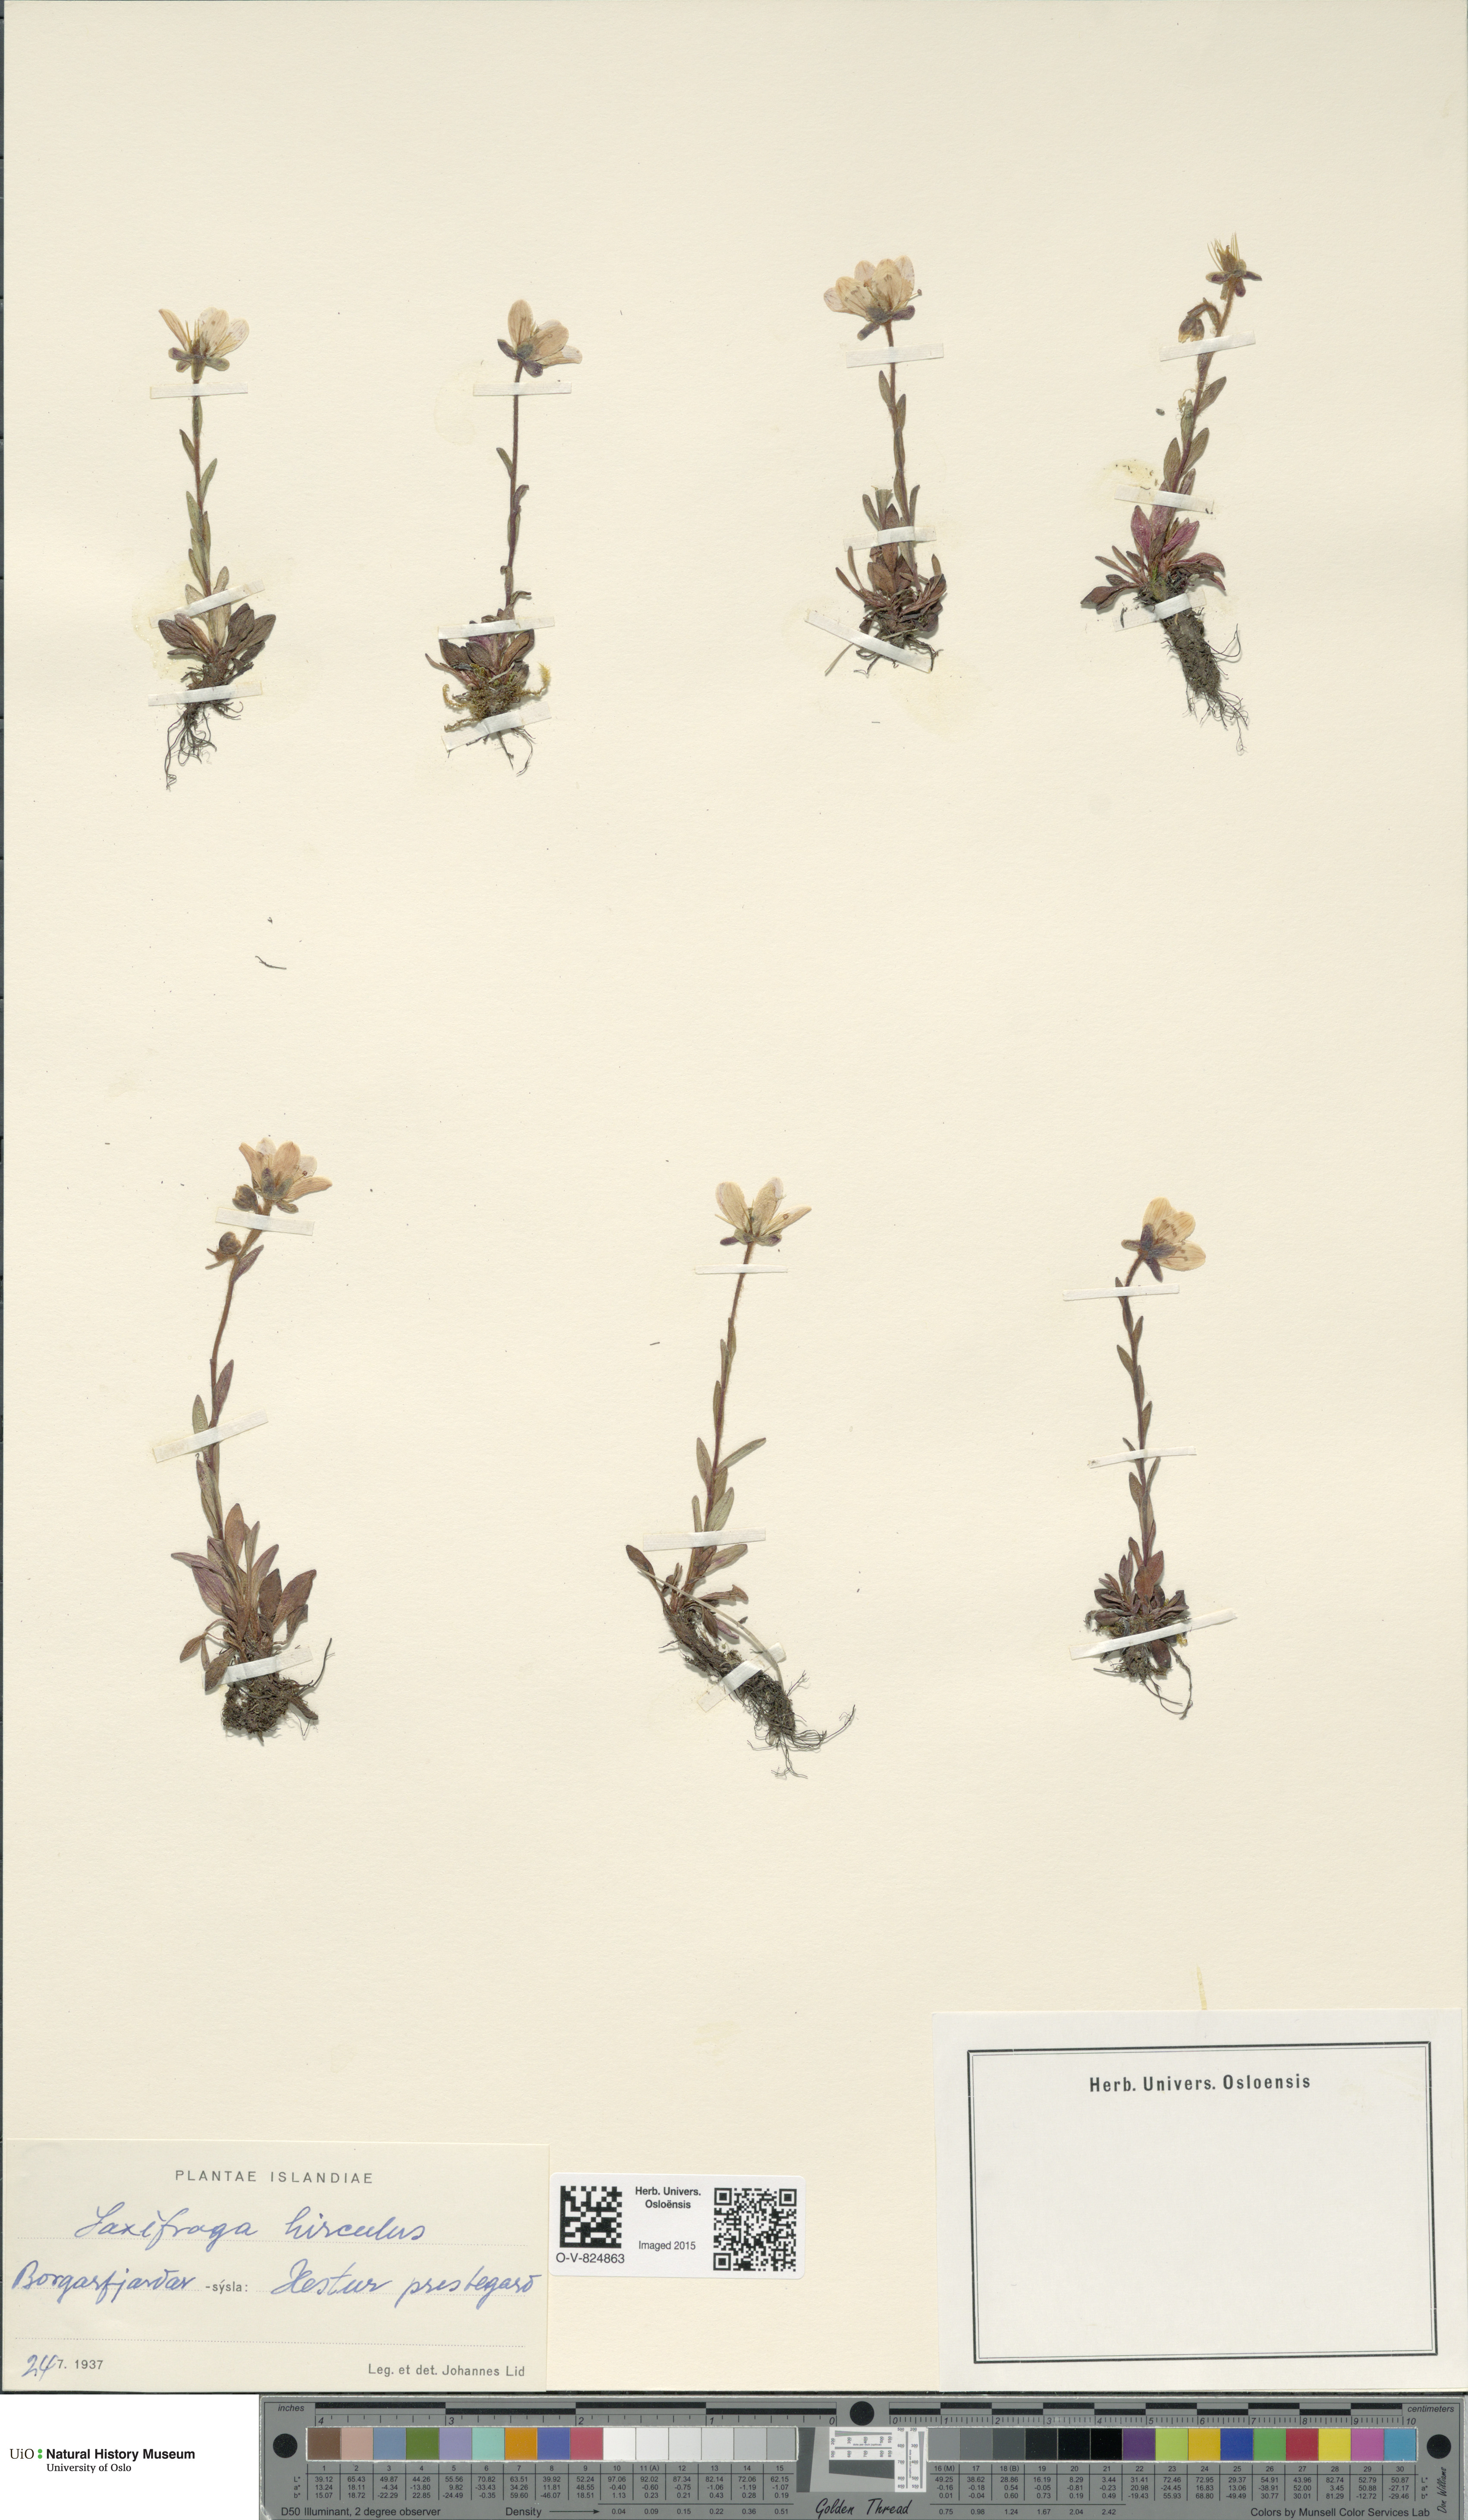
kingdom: Plantae
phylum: Tracheophyta
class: Magnoliopsida
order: Saxifragales
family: Saxifragaceae
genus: Saxifraga
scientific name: Saxifraga hirculus
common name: Yellow marsh saxifrage
